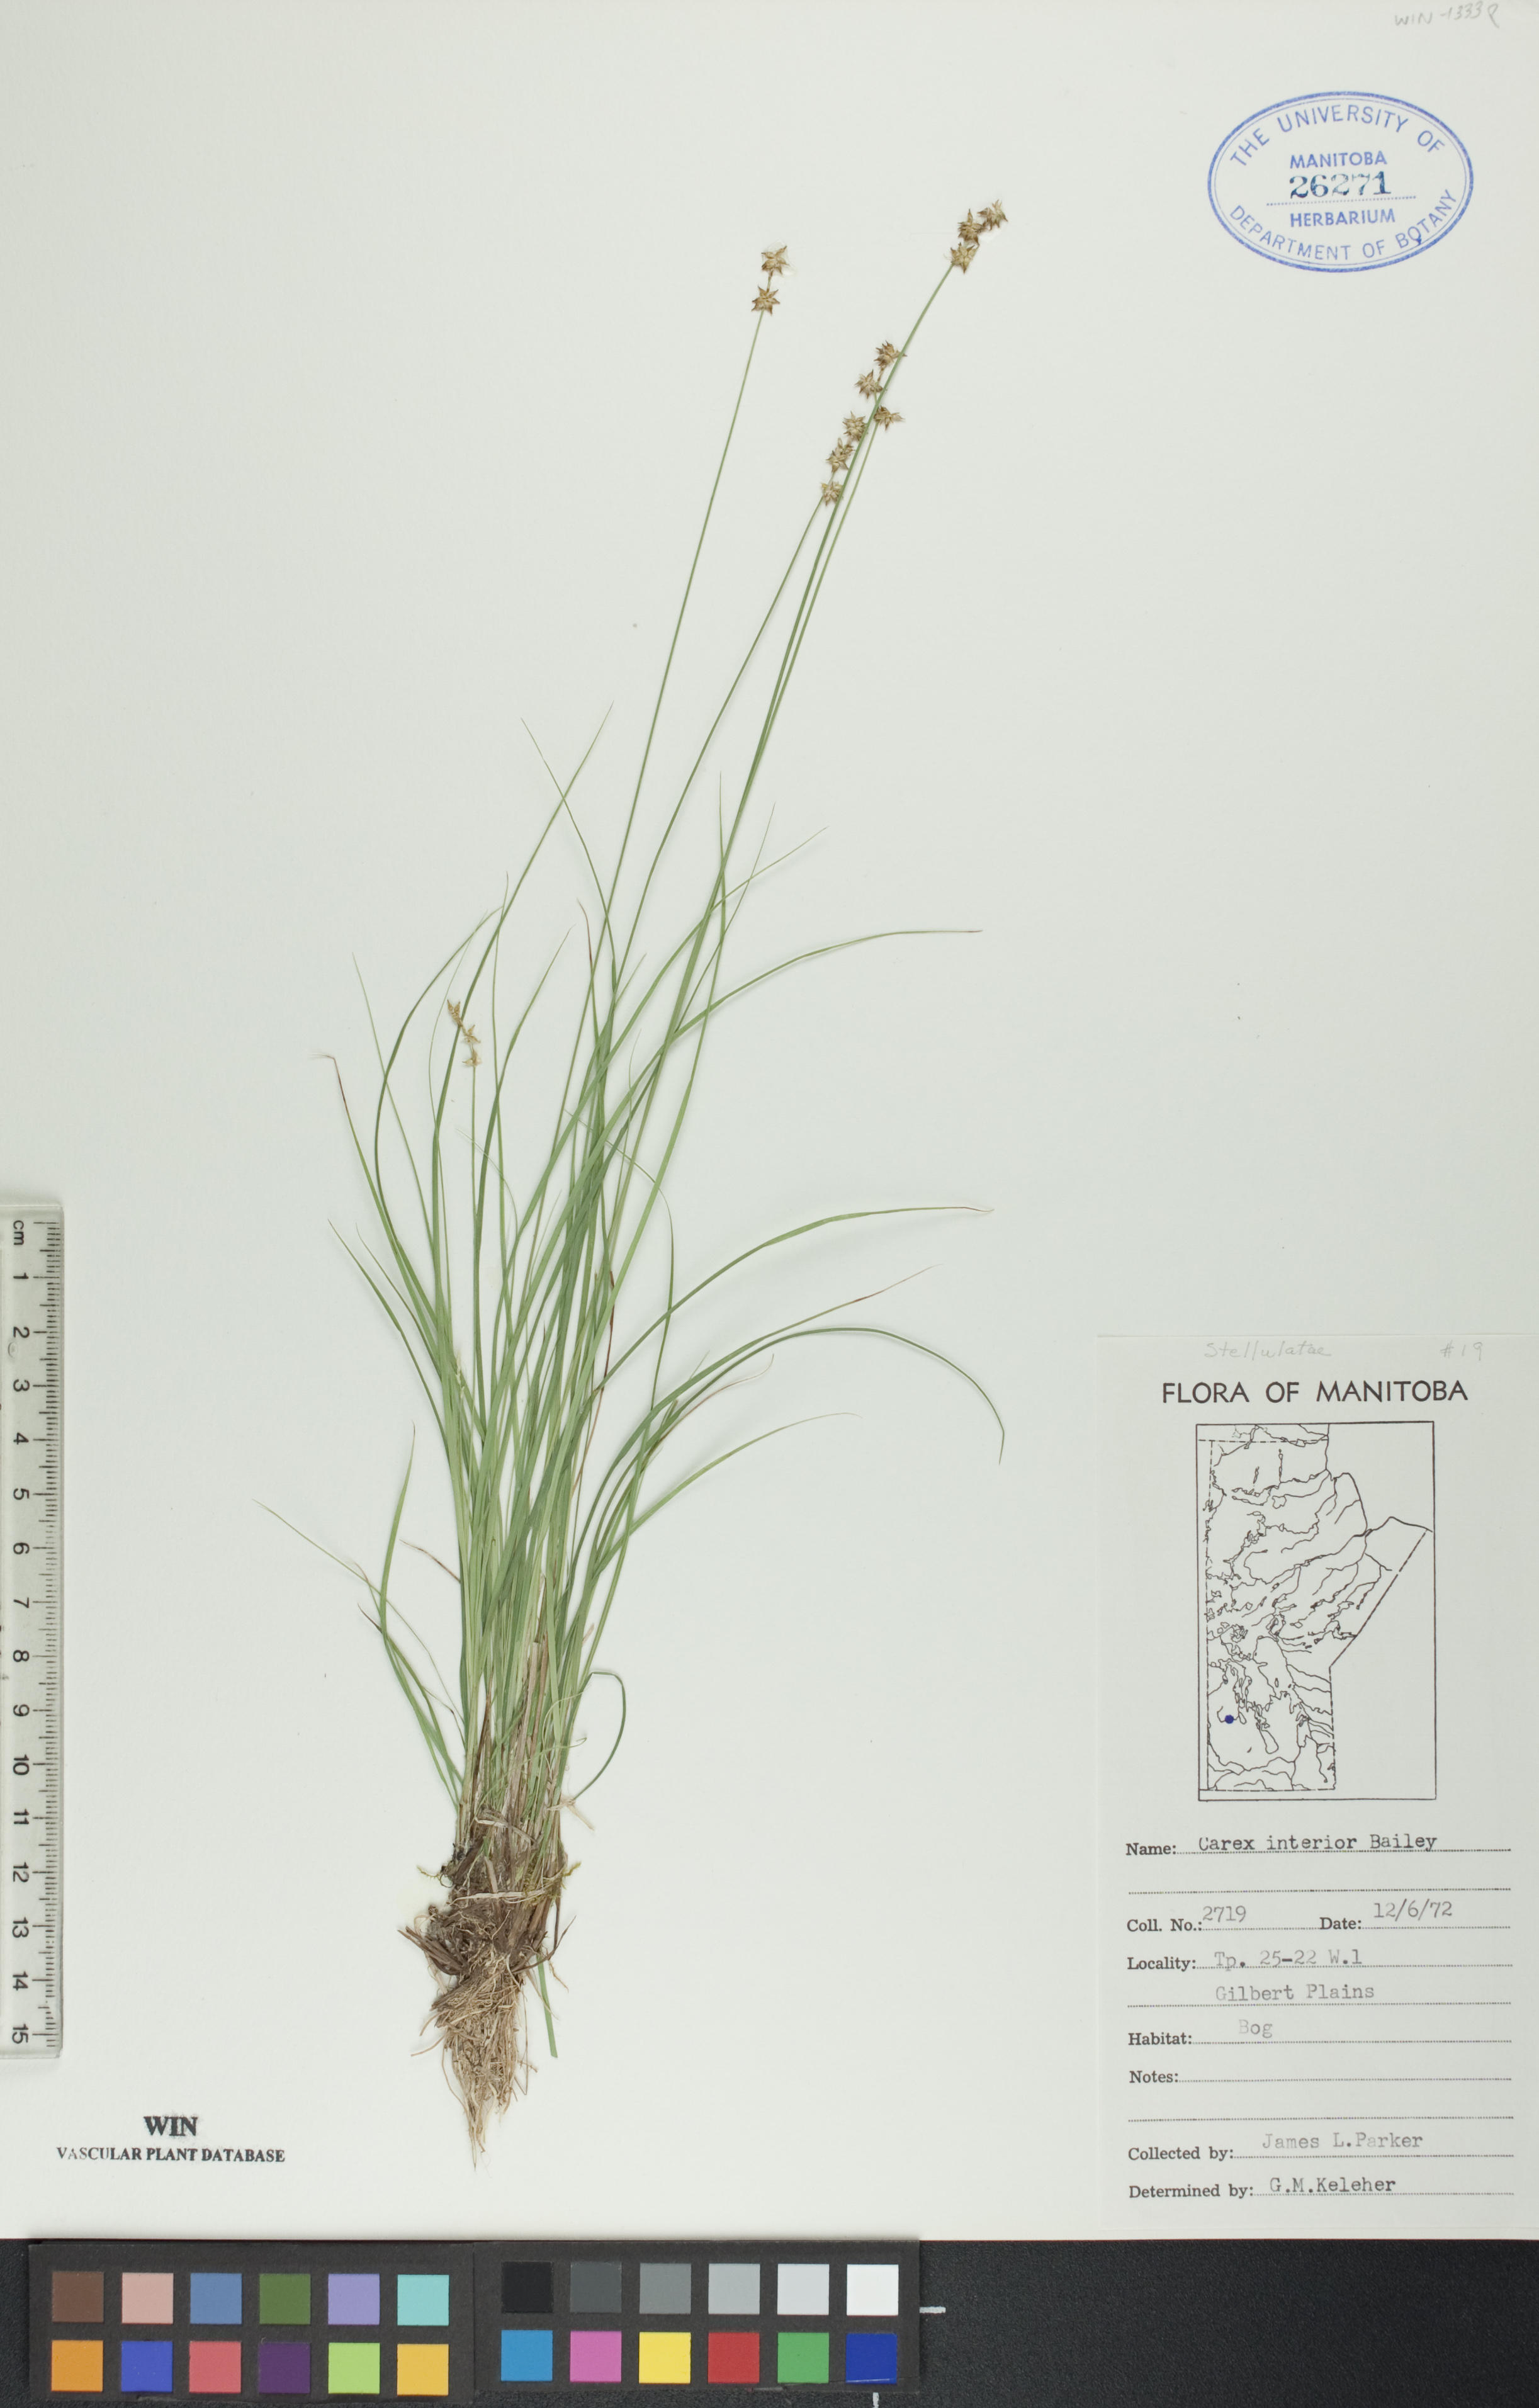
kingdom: Plantae
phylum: Tracheophyta
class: Liliopsida
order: Poales
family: Cyperaceae
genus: Carex
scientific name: Carex interior
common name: Inland sedge
